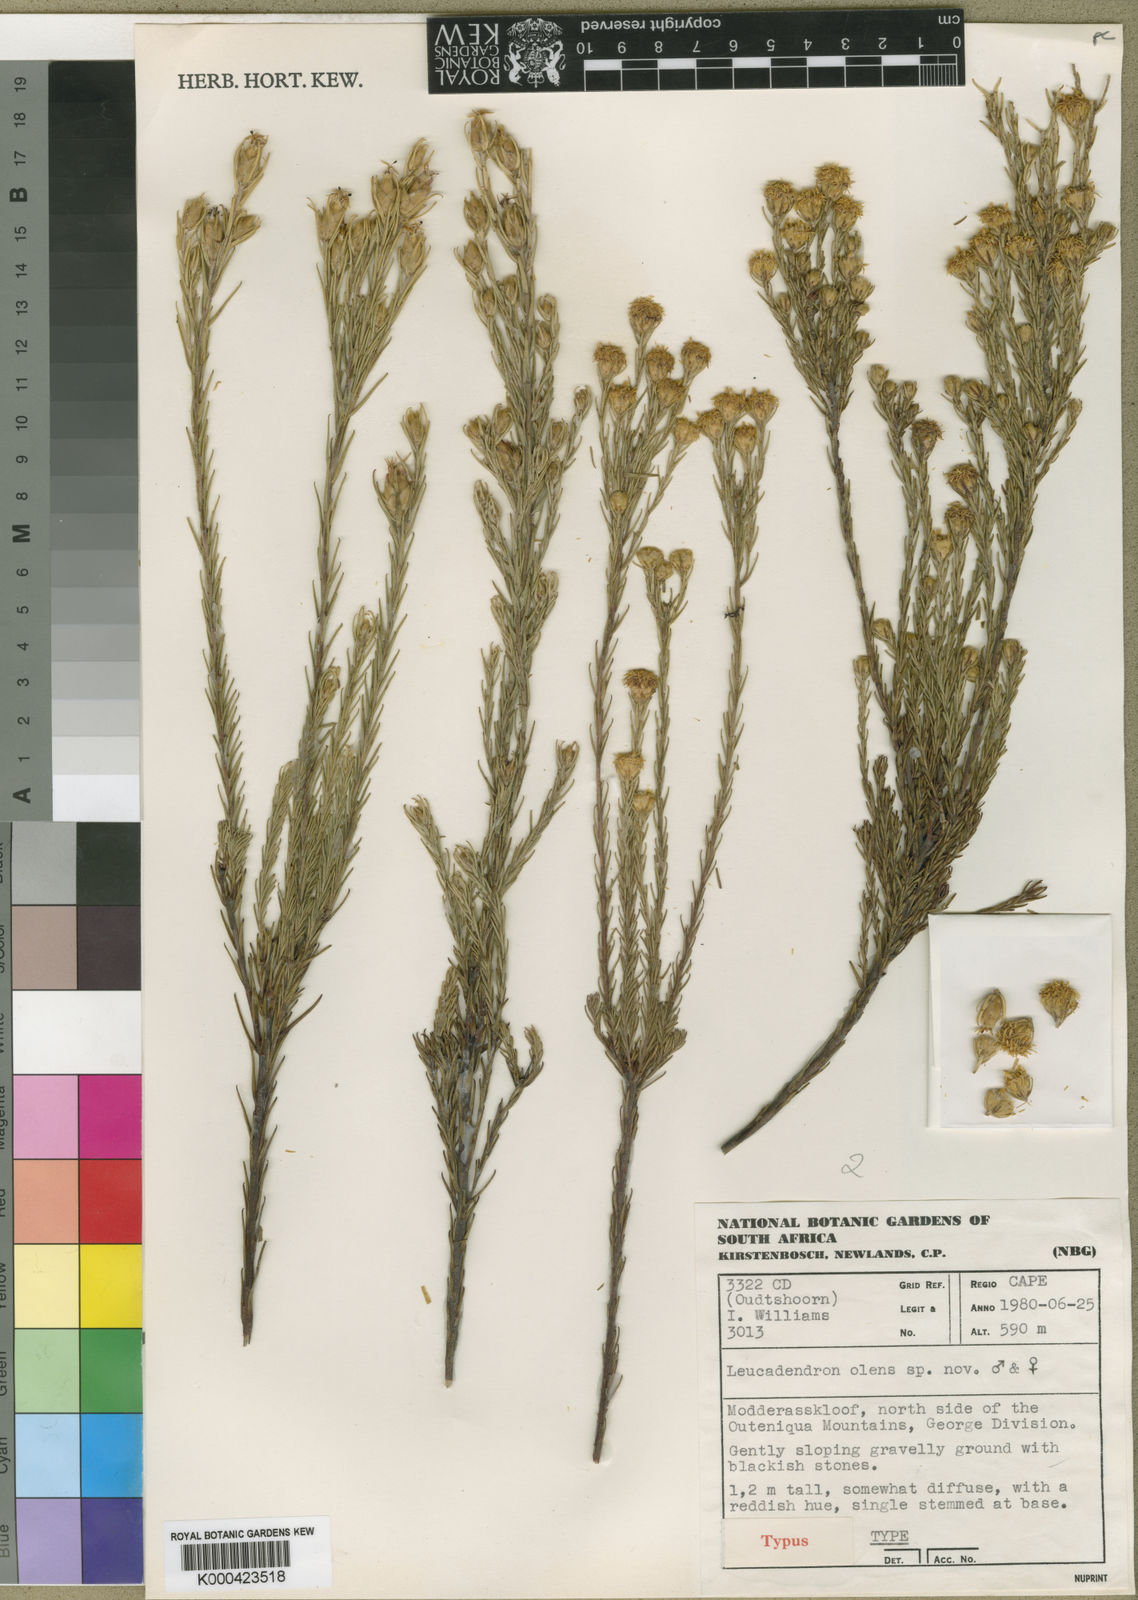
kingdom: Plantae
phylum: Tracheophyta
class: Magnoliopsida
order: Proteales
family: Proteaceae
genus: Leucadendron
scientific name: Leucadendron olens
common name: Yellow conebush
